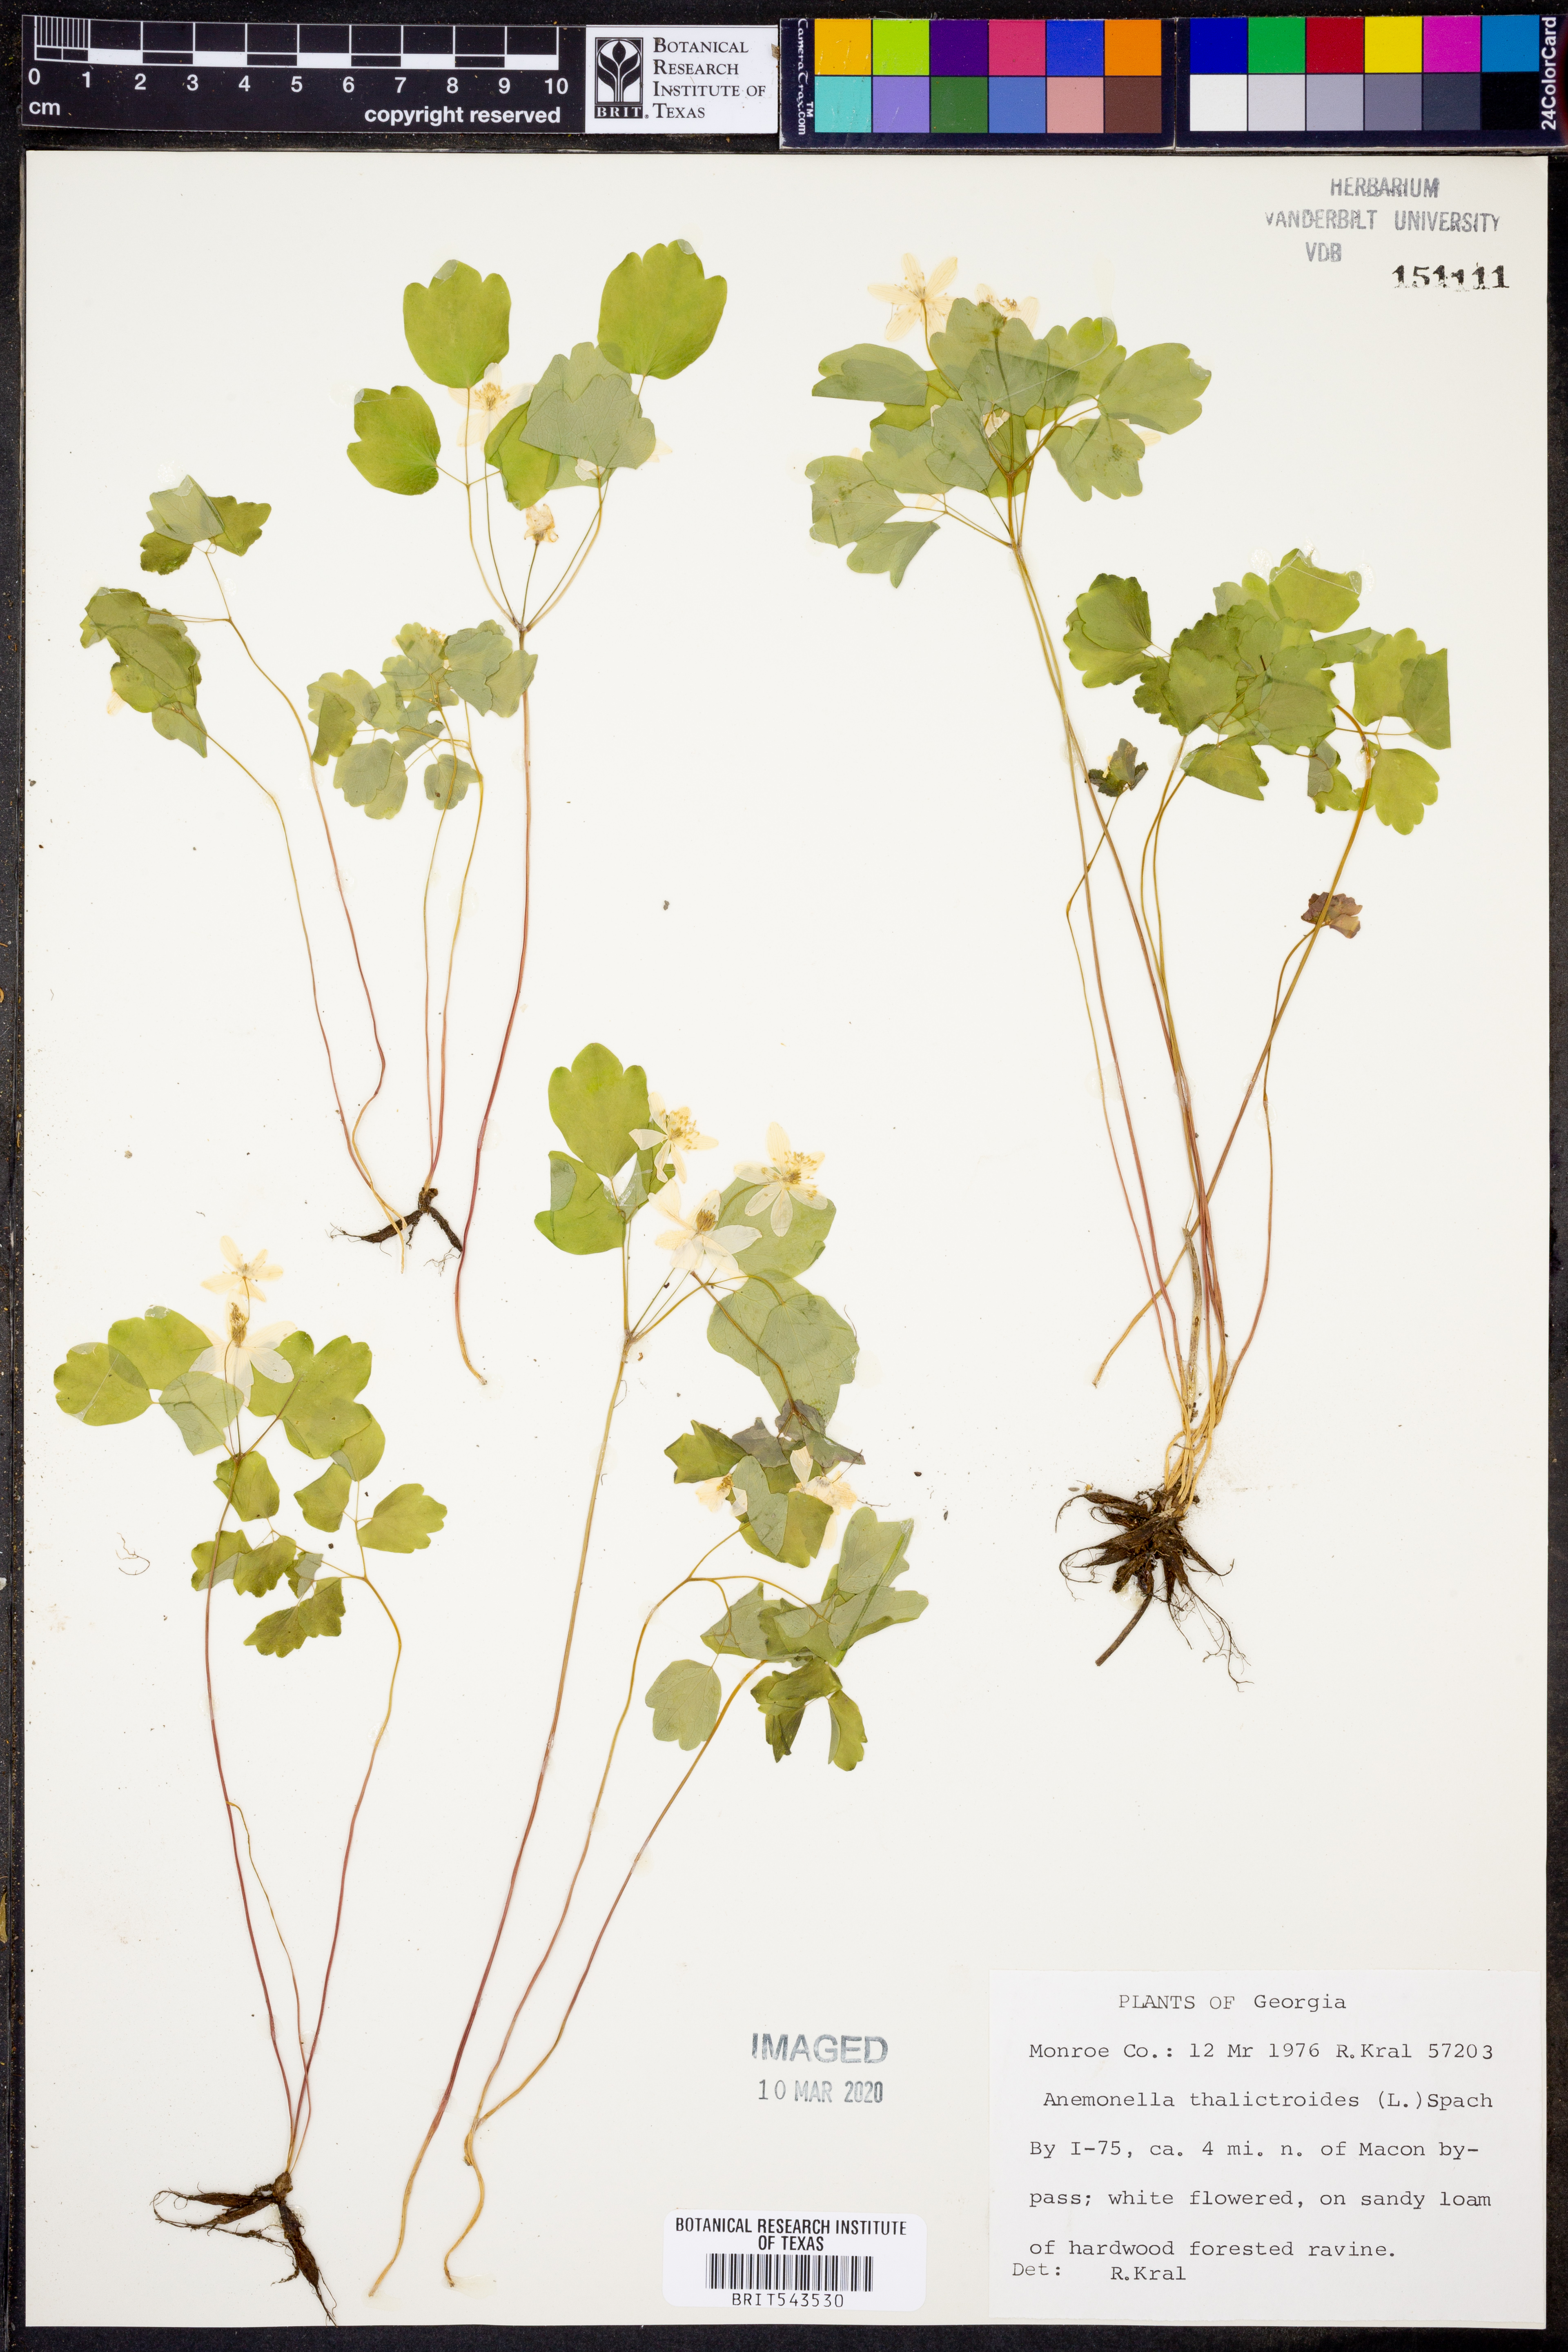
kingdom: Plantae
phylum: Tracheophyta
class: Magnoliopsida
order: Ranunculales
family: Ranunculaceae
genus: Thalictrum
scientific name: Thalictrum thalictroides
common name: Rue-anemone
